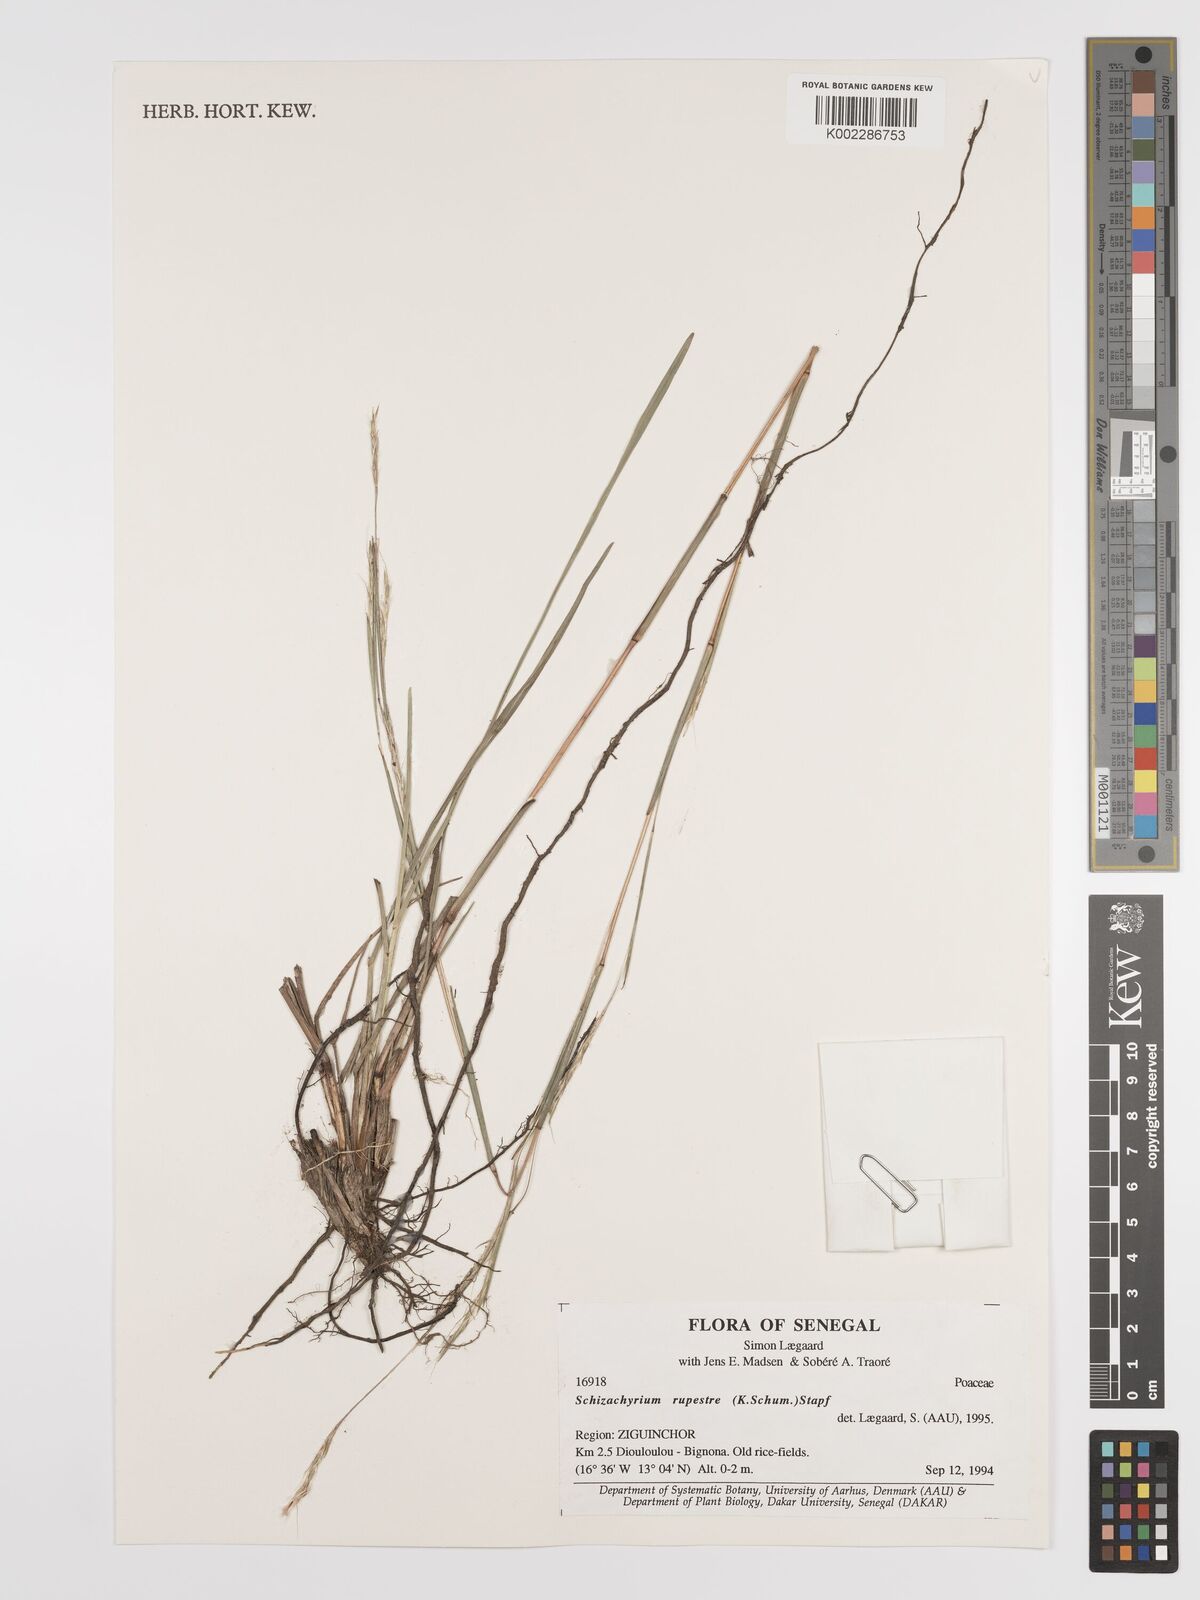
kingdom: Plantae
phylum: Tracheophyta
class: Liliopsida
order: Poales
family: Poaceae
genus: Andropogon
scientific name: Andropogon rupestris
